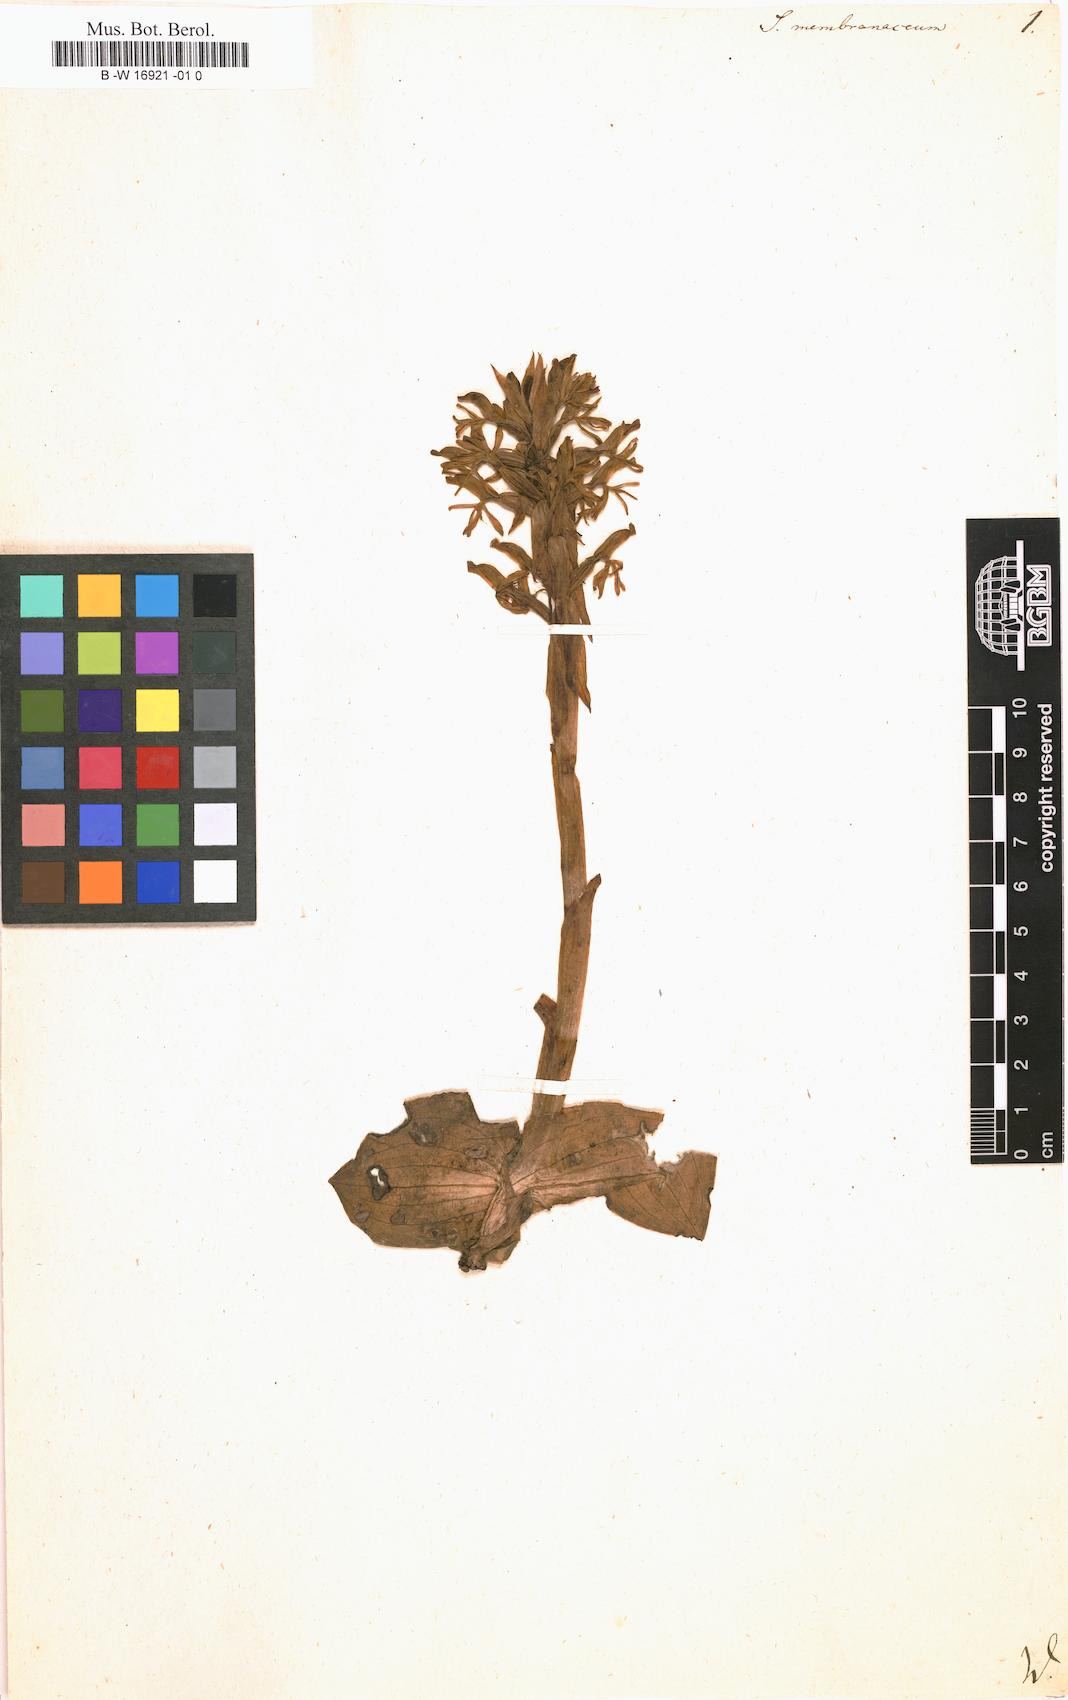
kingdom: Plantae
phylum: Tracheophyta
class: Liliopsida
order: Asparagales
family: Orchidaceae
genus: Satyrium
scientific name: Satyrium membranaceum
